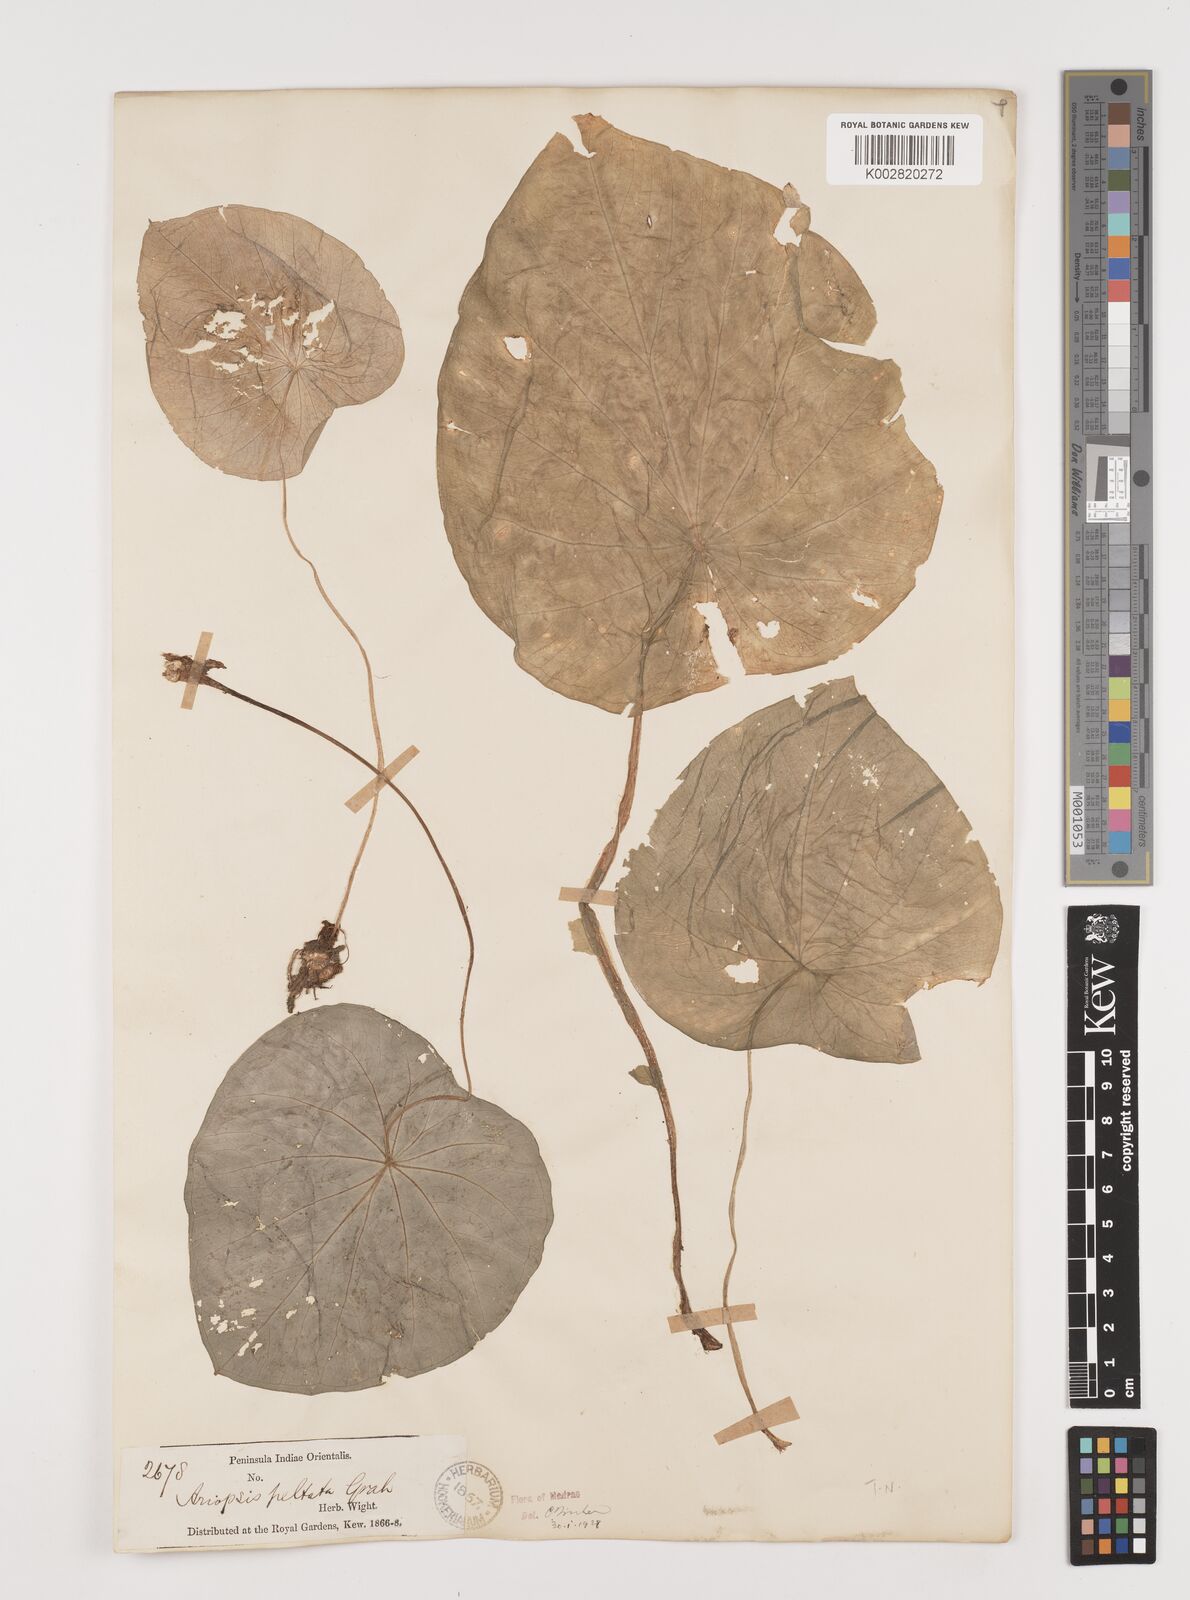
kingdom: Plantae
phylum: Tracheophyta
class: Liliopsida
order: Alismatales
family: Araceae
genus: Ariopsis
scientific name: Ariopsis peltata
